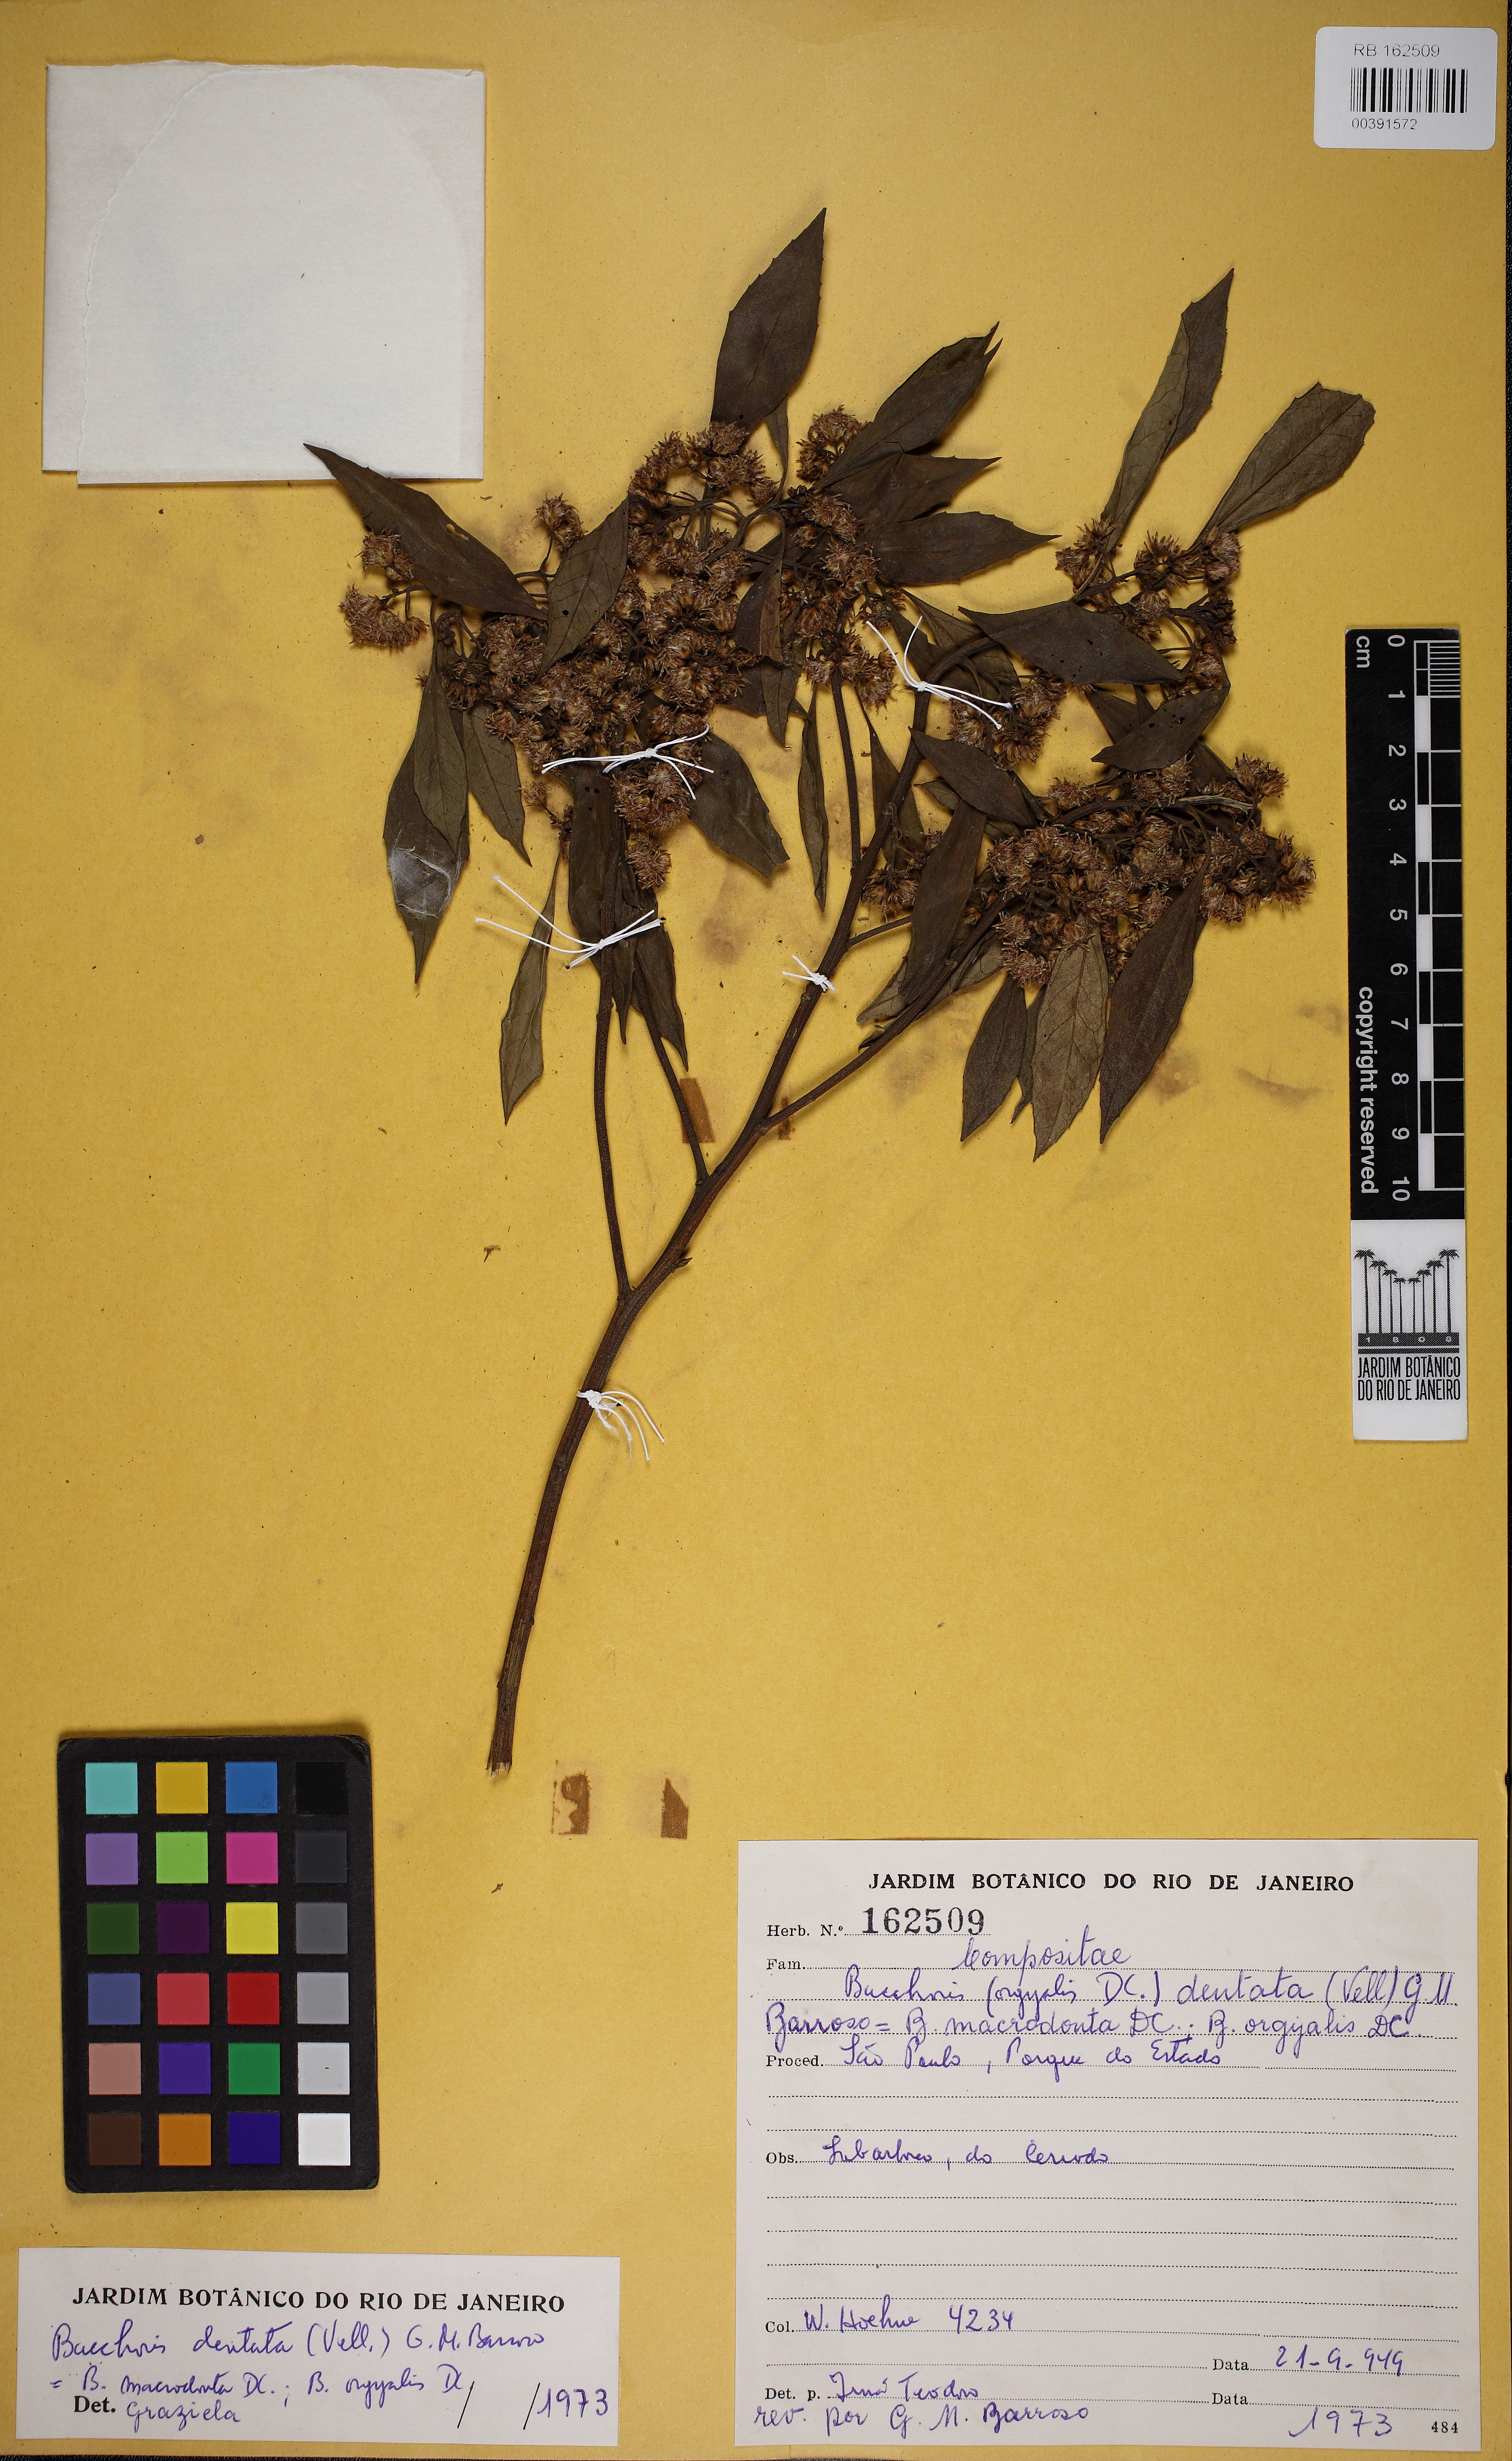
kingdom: Plantae
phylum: Tracheophyta
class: Magnoliopsida
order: Asterales
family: Asteraceae
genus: Baccharis
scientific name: Baccharis dentata
